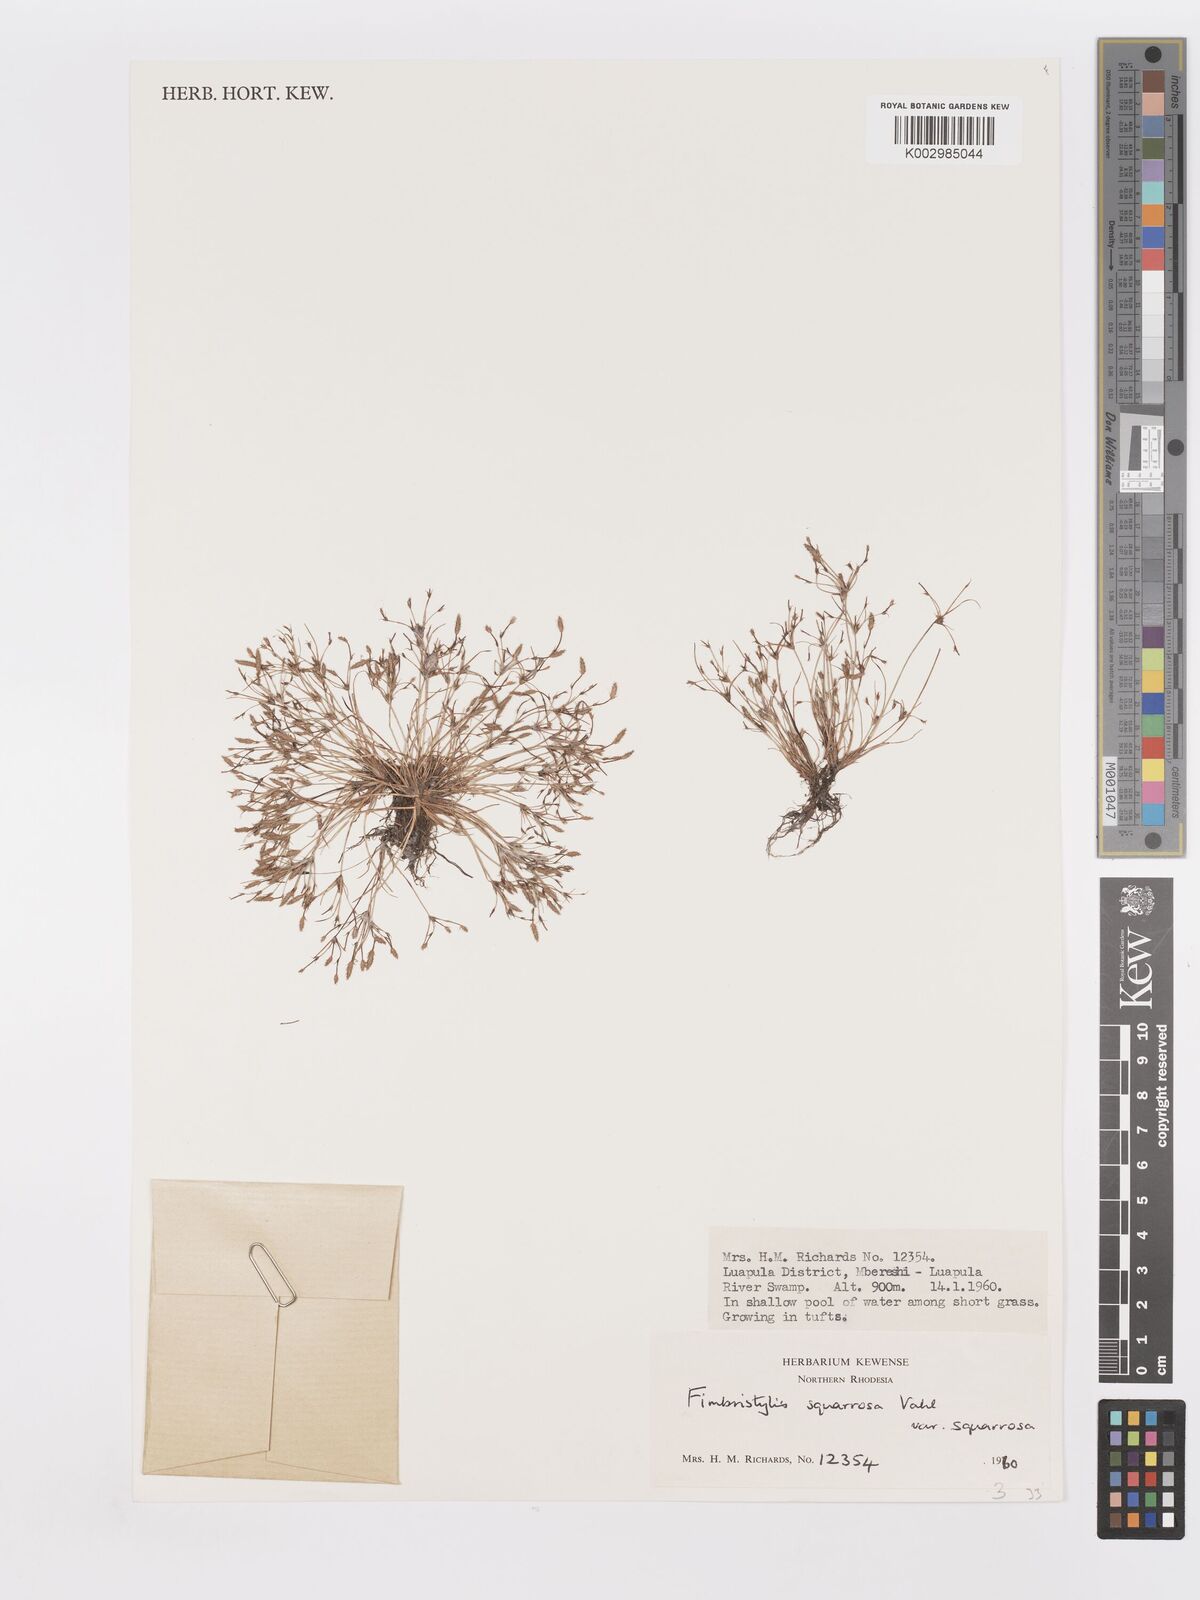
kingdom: Plantae
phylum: Tracheophyta
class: Liliopsida
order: Poales
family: Cyperaceae
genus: Fimbristylis
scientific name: Fimbristylis squarrosa
